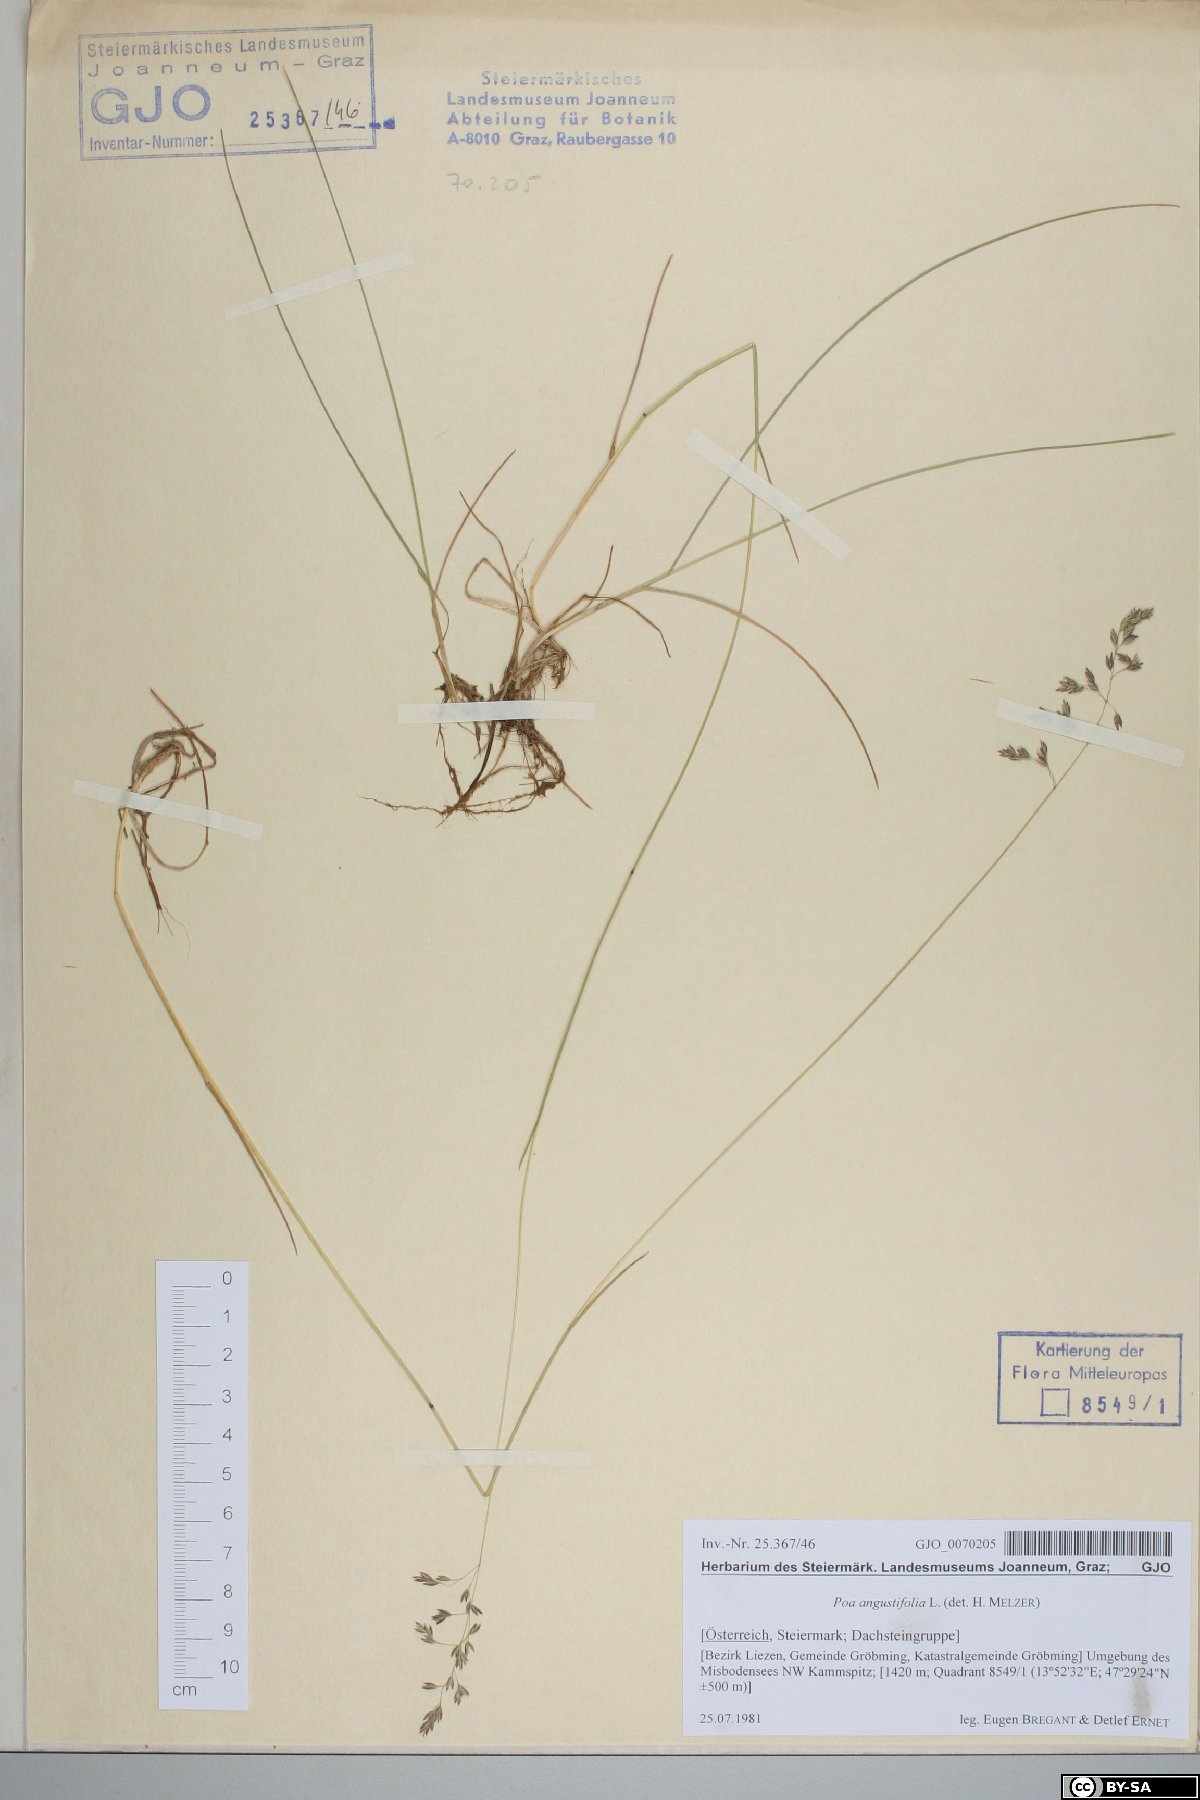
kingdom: Plantae
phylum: Tracheophyta
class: Liliopsida
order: Poales
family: Poaceae
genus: Poa
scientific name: Poa angustifolia
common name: Narrow-leaved meadow-grass
